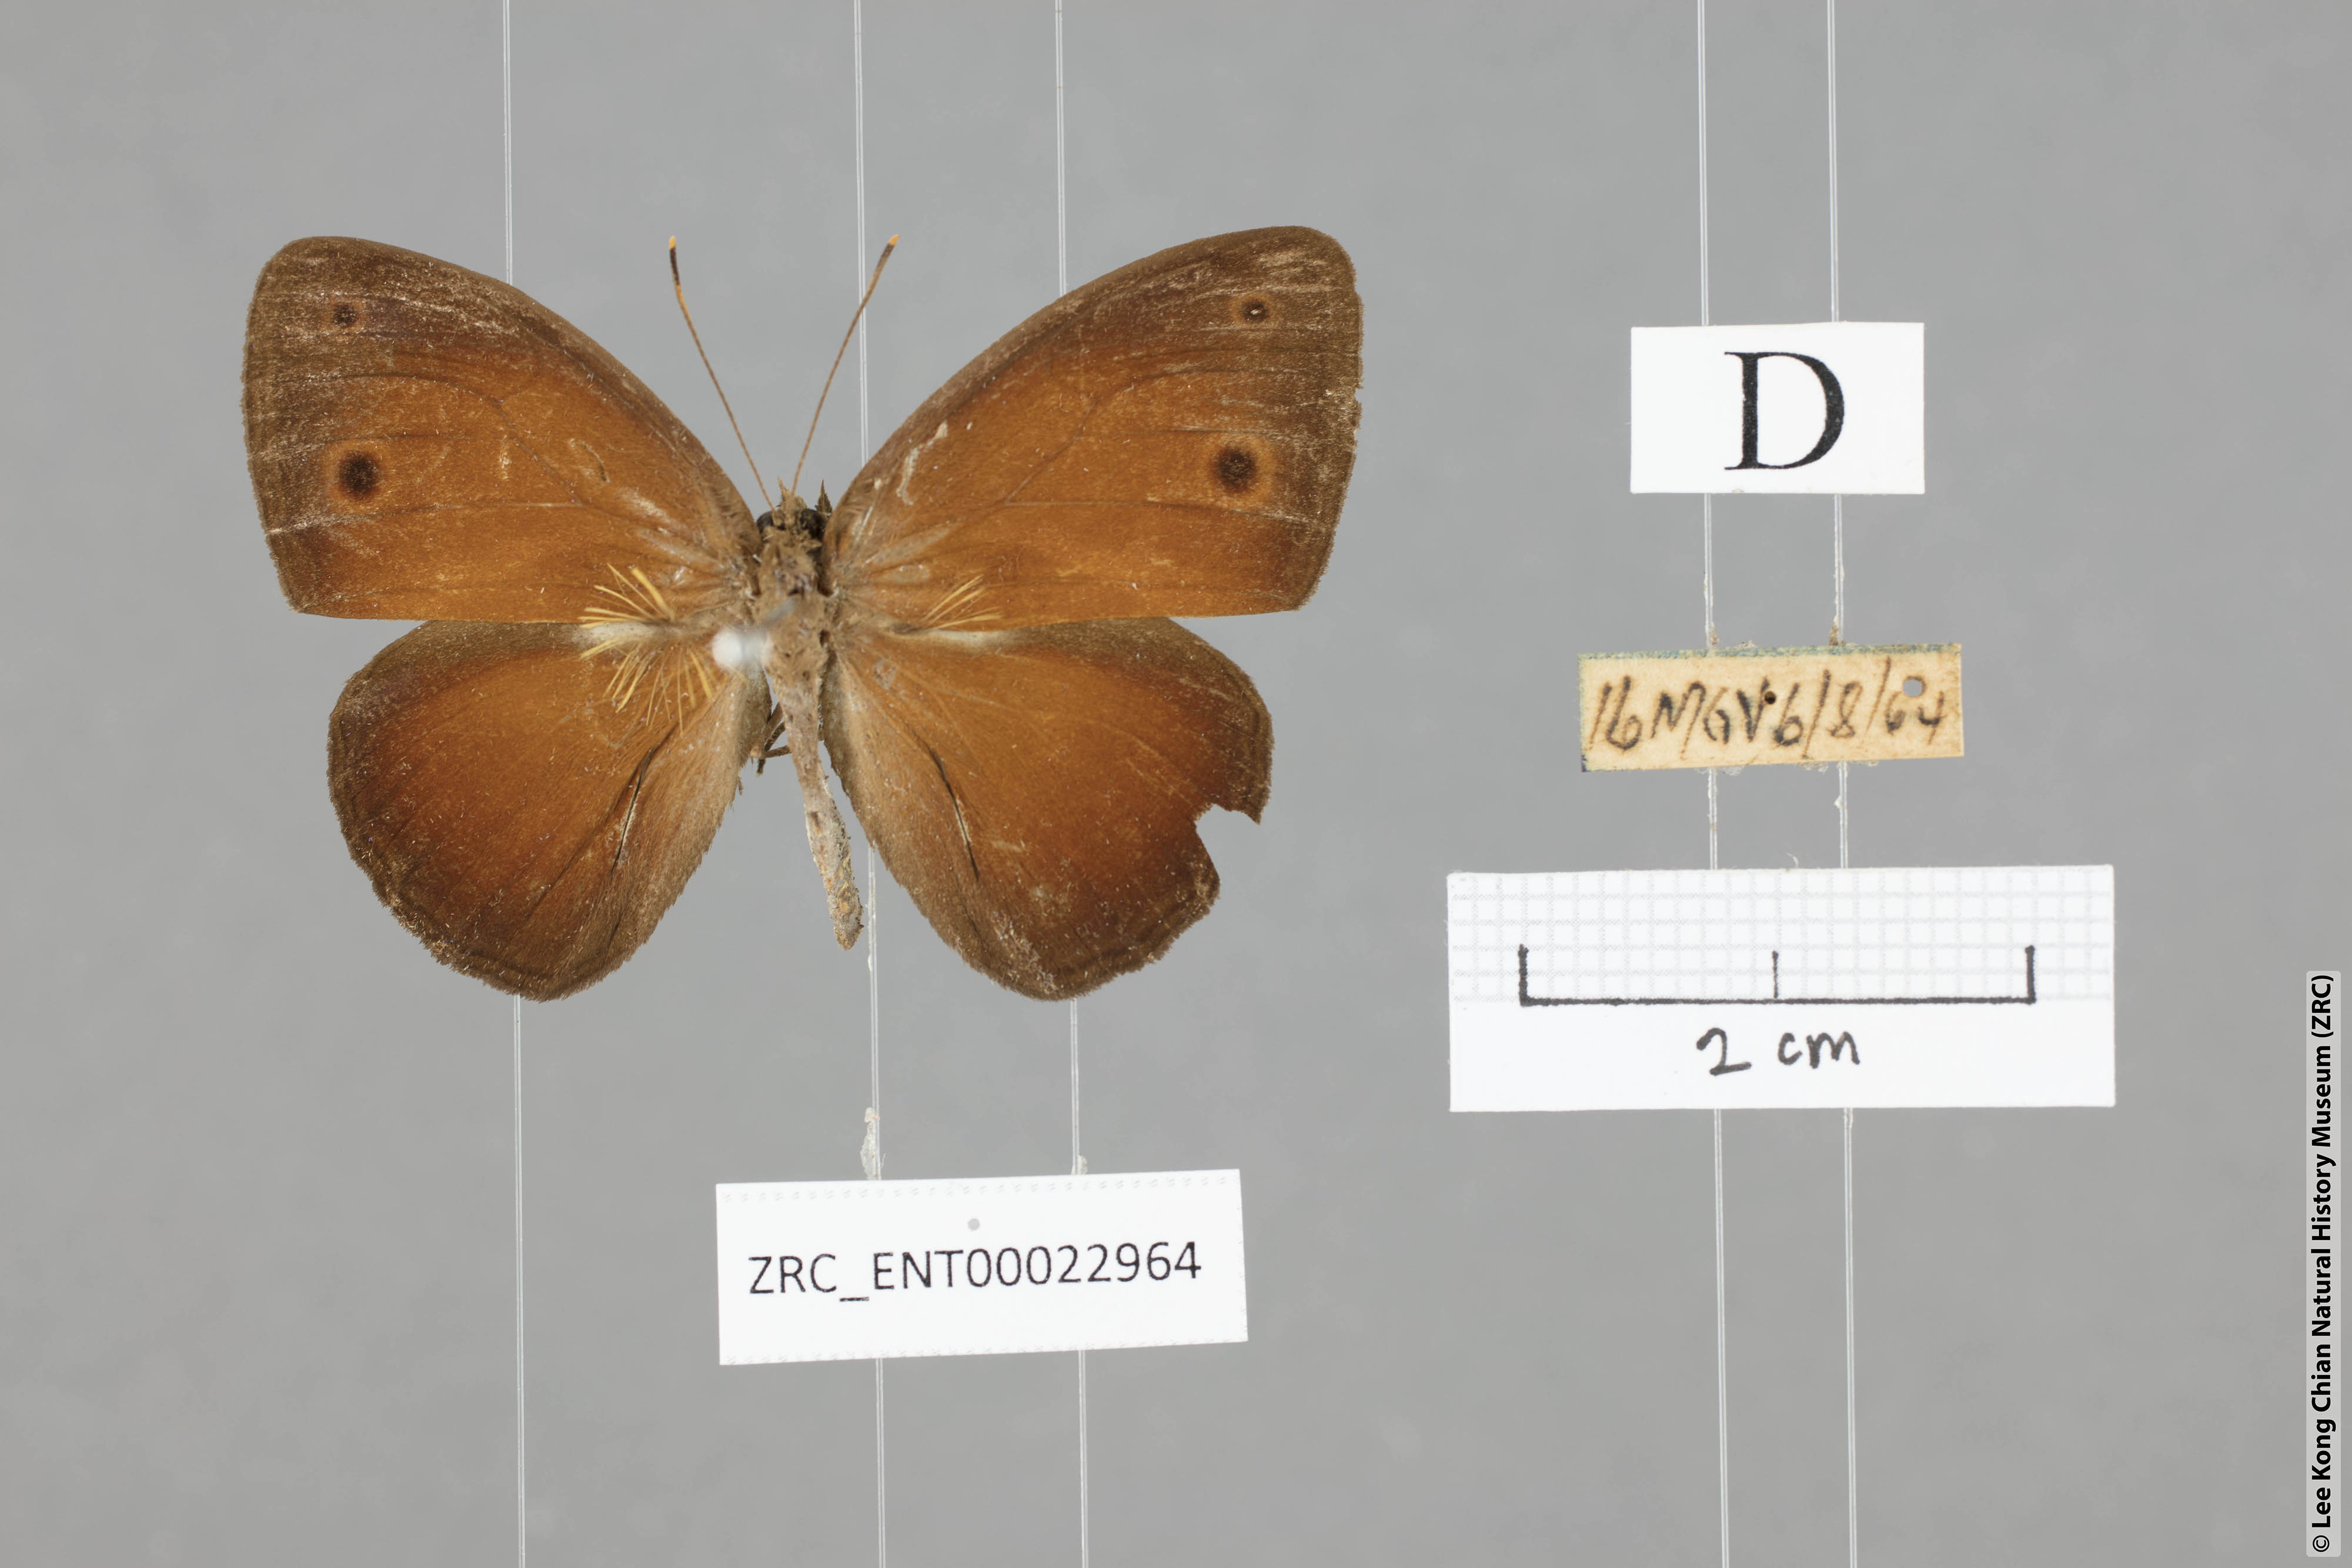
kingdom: Animalia
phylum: Arthropoda
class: Insecta
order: Lepidoptera
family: Nymphalidae
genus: Mycalesis
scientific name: Mycalesis oroatis
